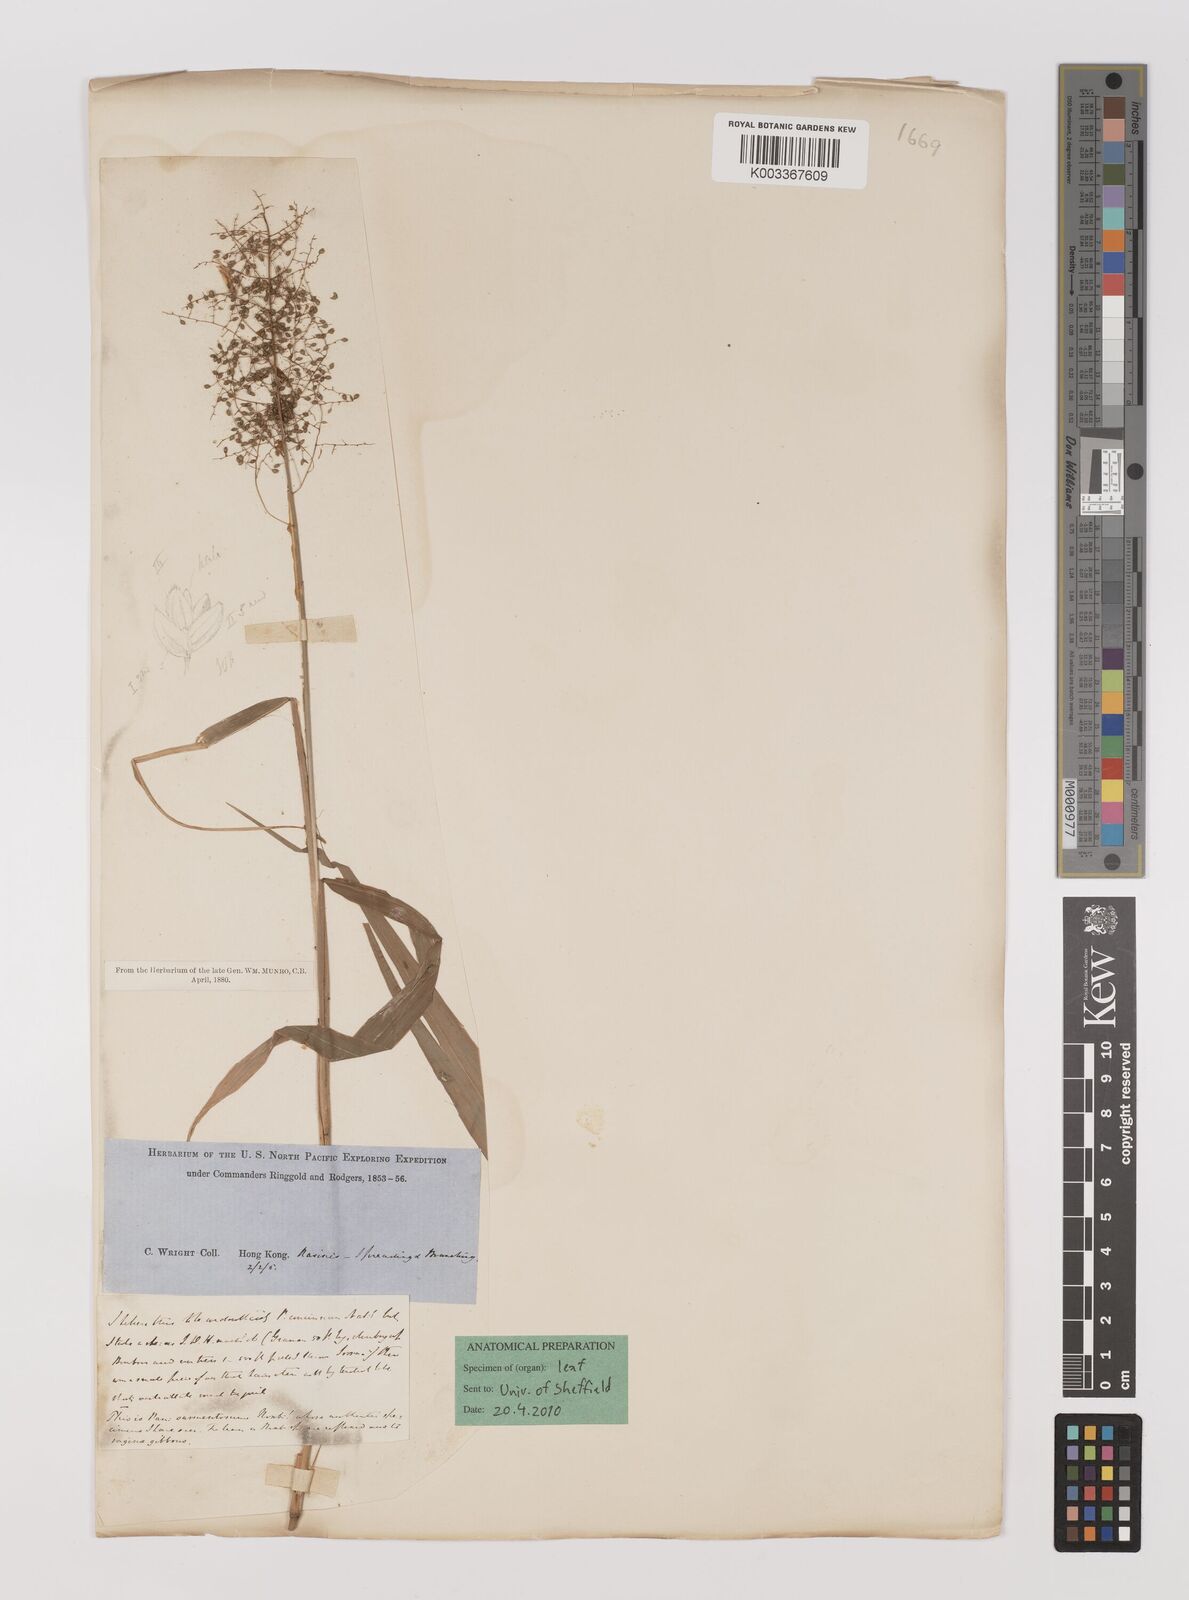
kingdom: Plantae
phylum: Tracheophyta
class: Liliopsida
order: Poales
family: Poaceae
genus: Panicum
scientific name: Panicum incomtum
